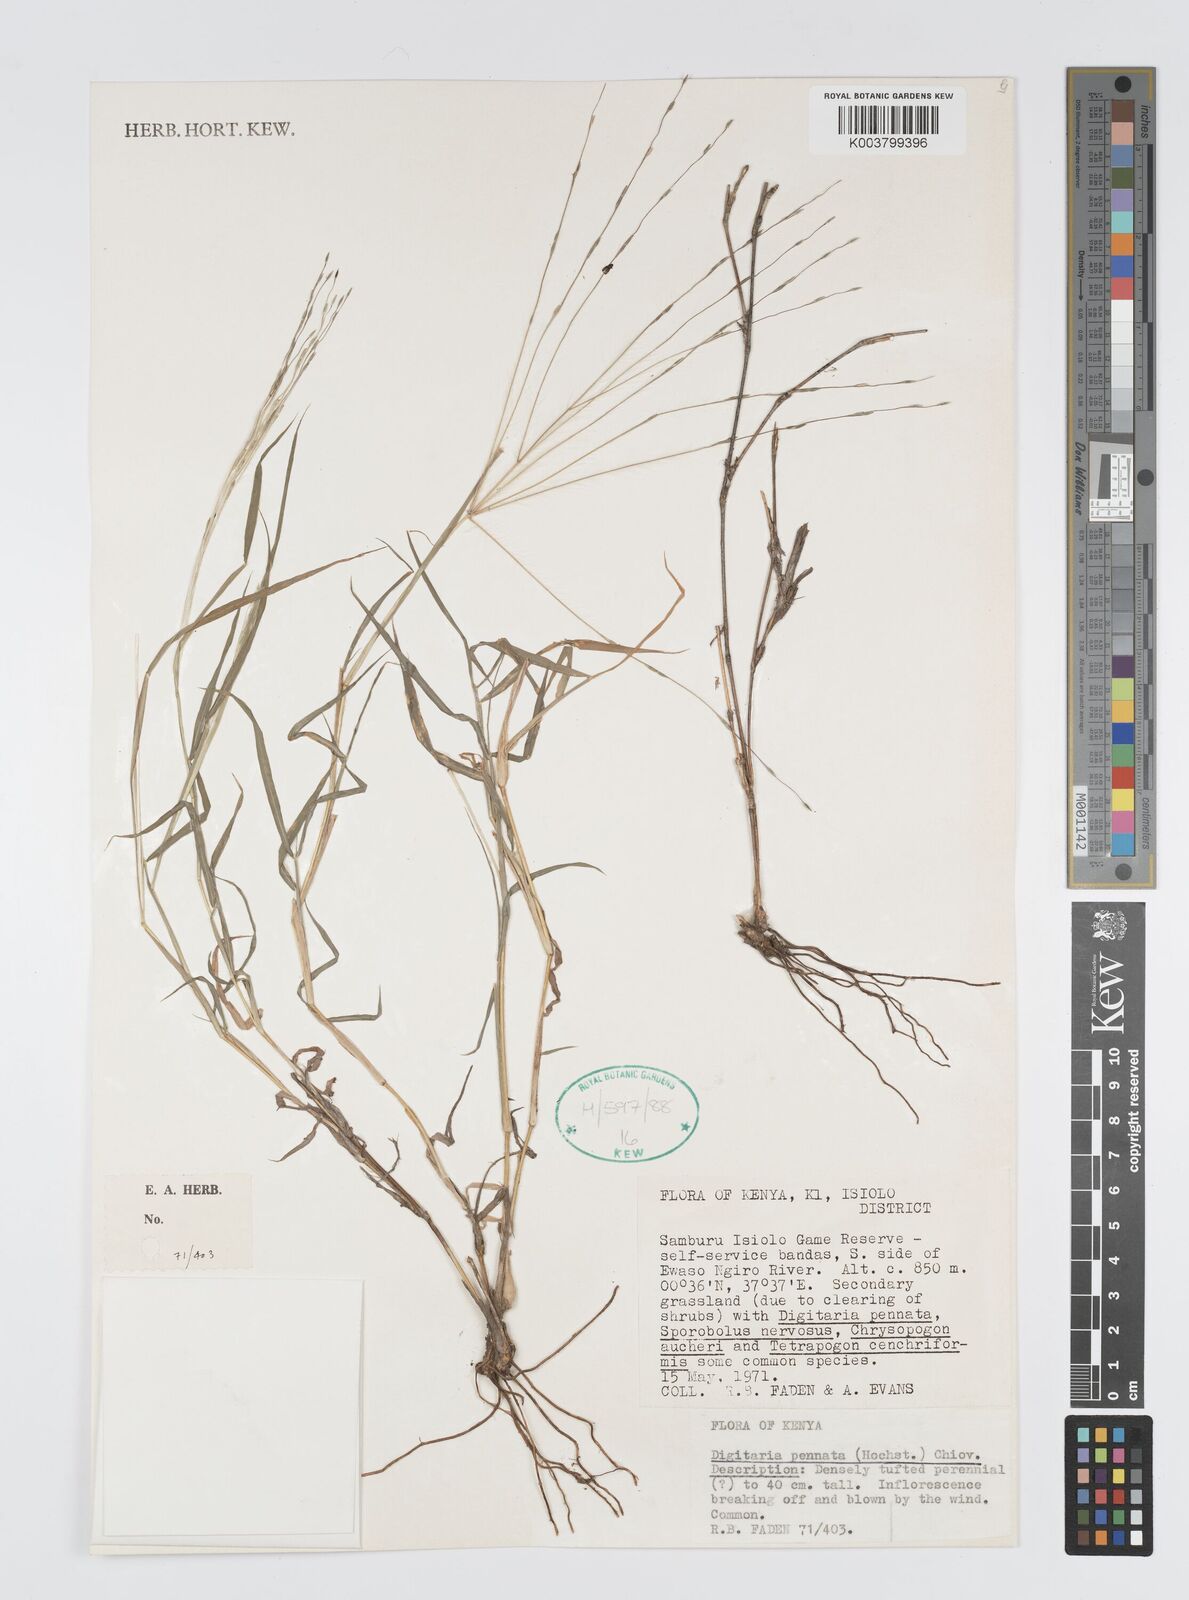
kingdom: Plantae
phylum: Tracheophyta
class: Liliopsida
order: Poales
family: Poaceae
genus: Digitaria
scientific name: Digitaria
